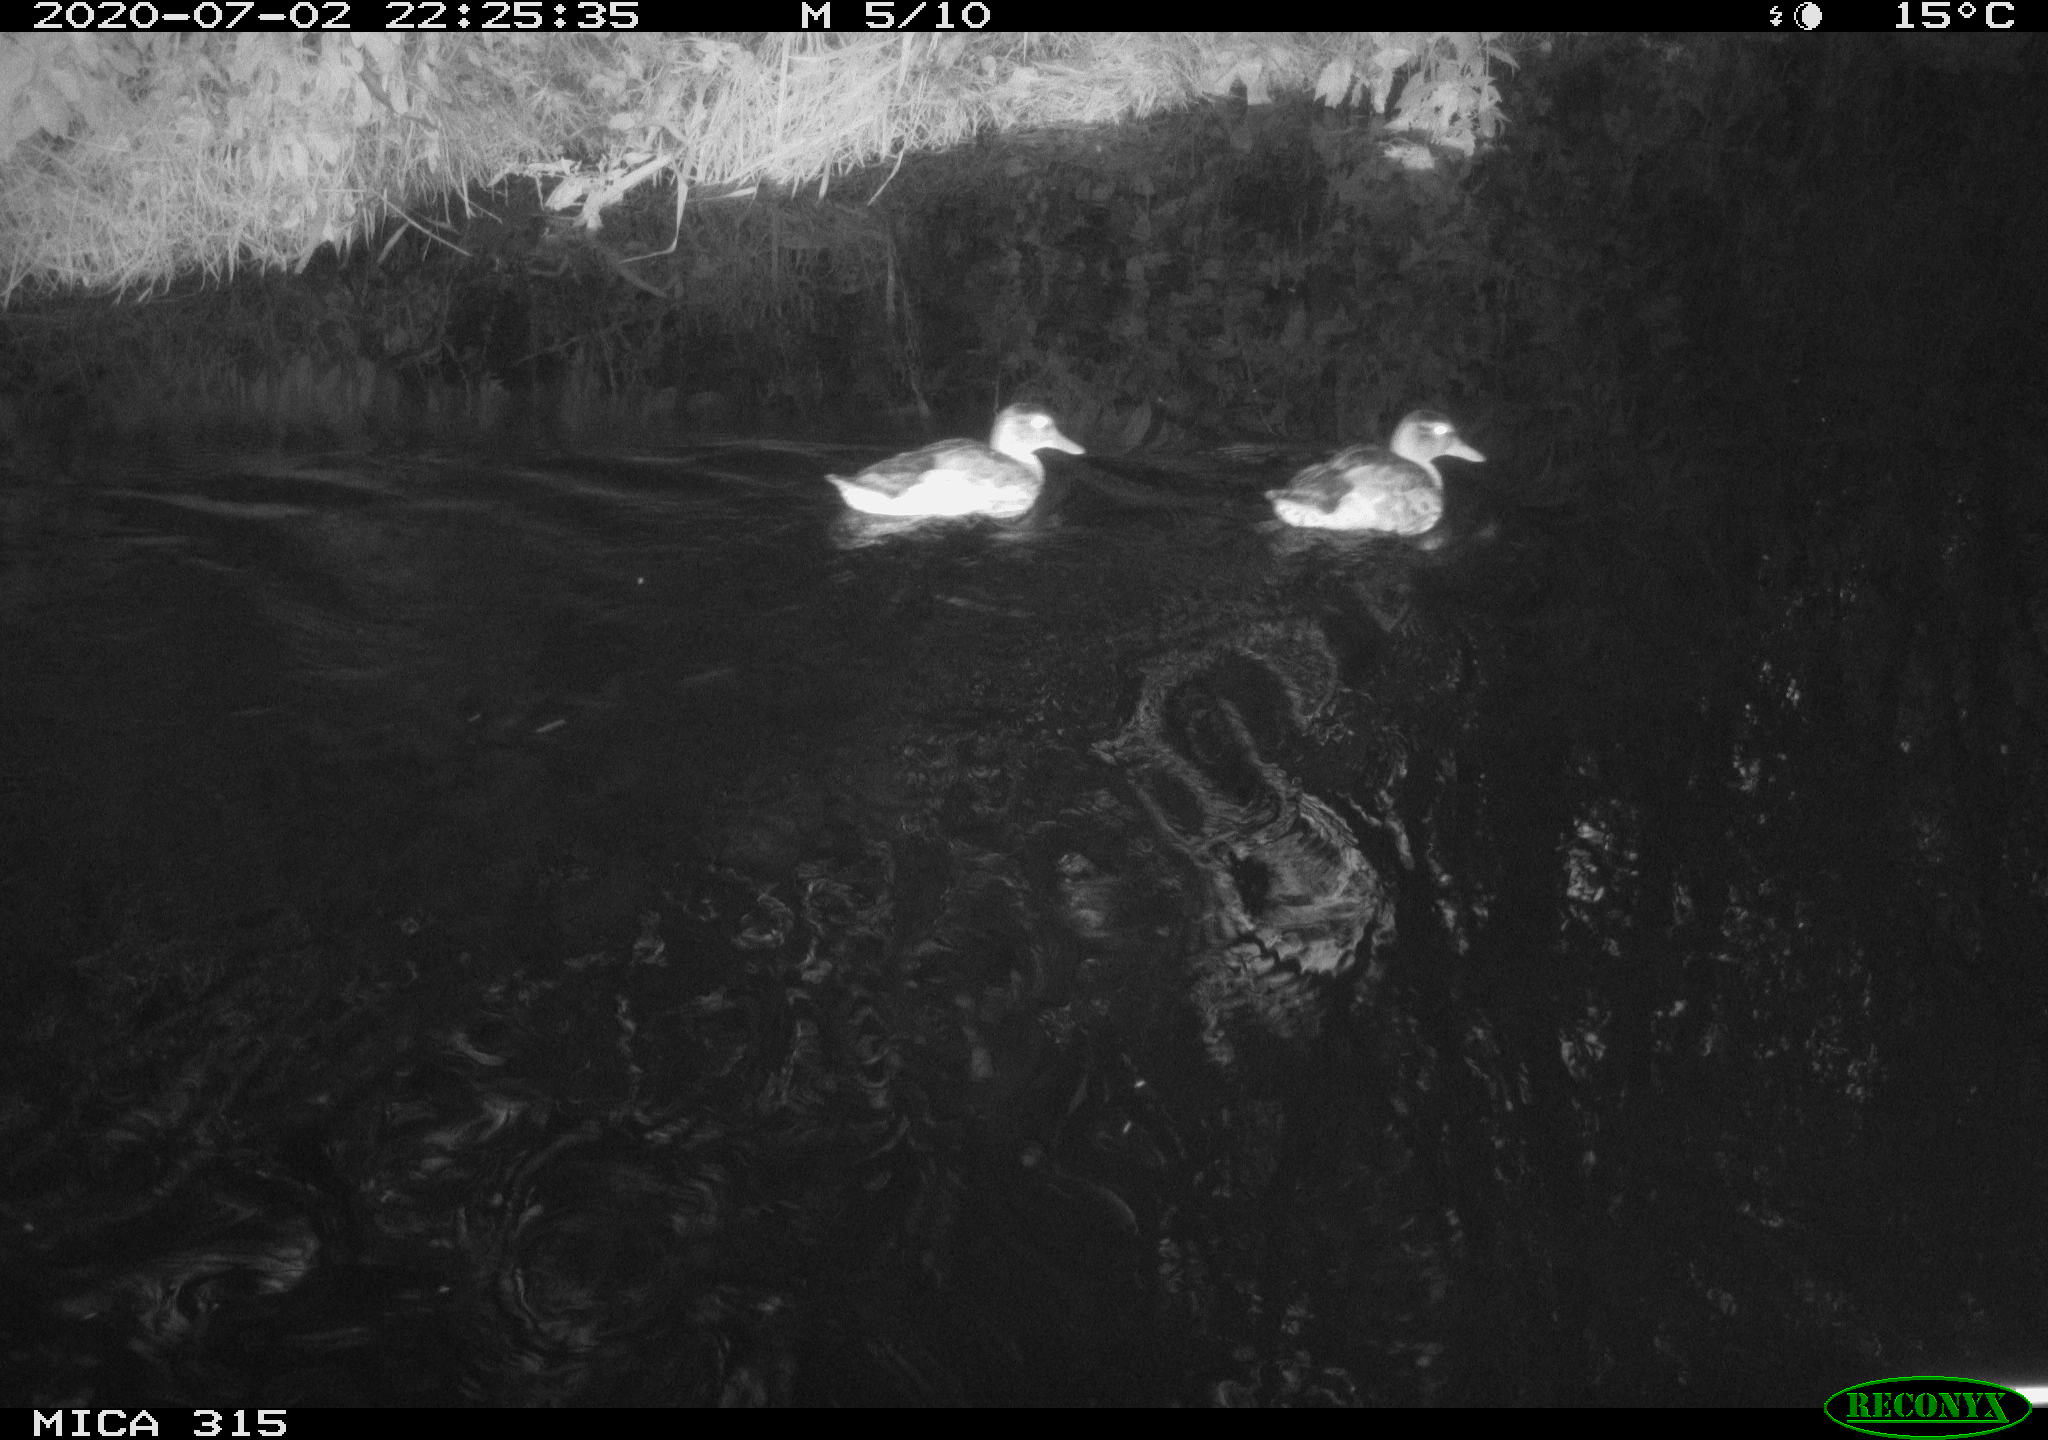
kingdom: Animalia
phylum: Chordata
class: Aves
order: Anseriformes
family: Anatidae
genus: Anas
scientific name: Anas platyrhynchos
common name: Mallard
